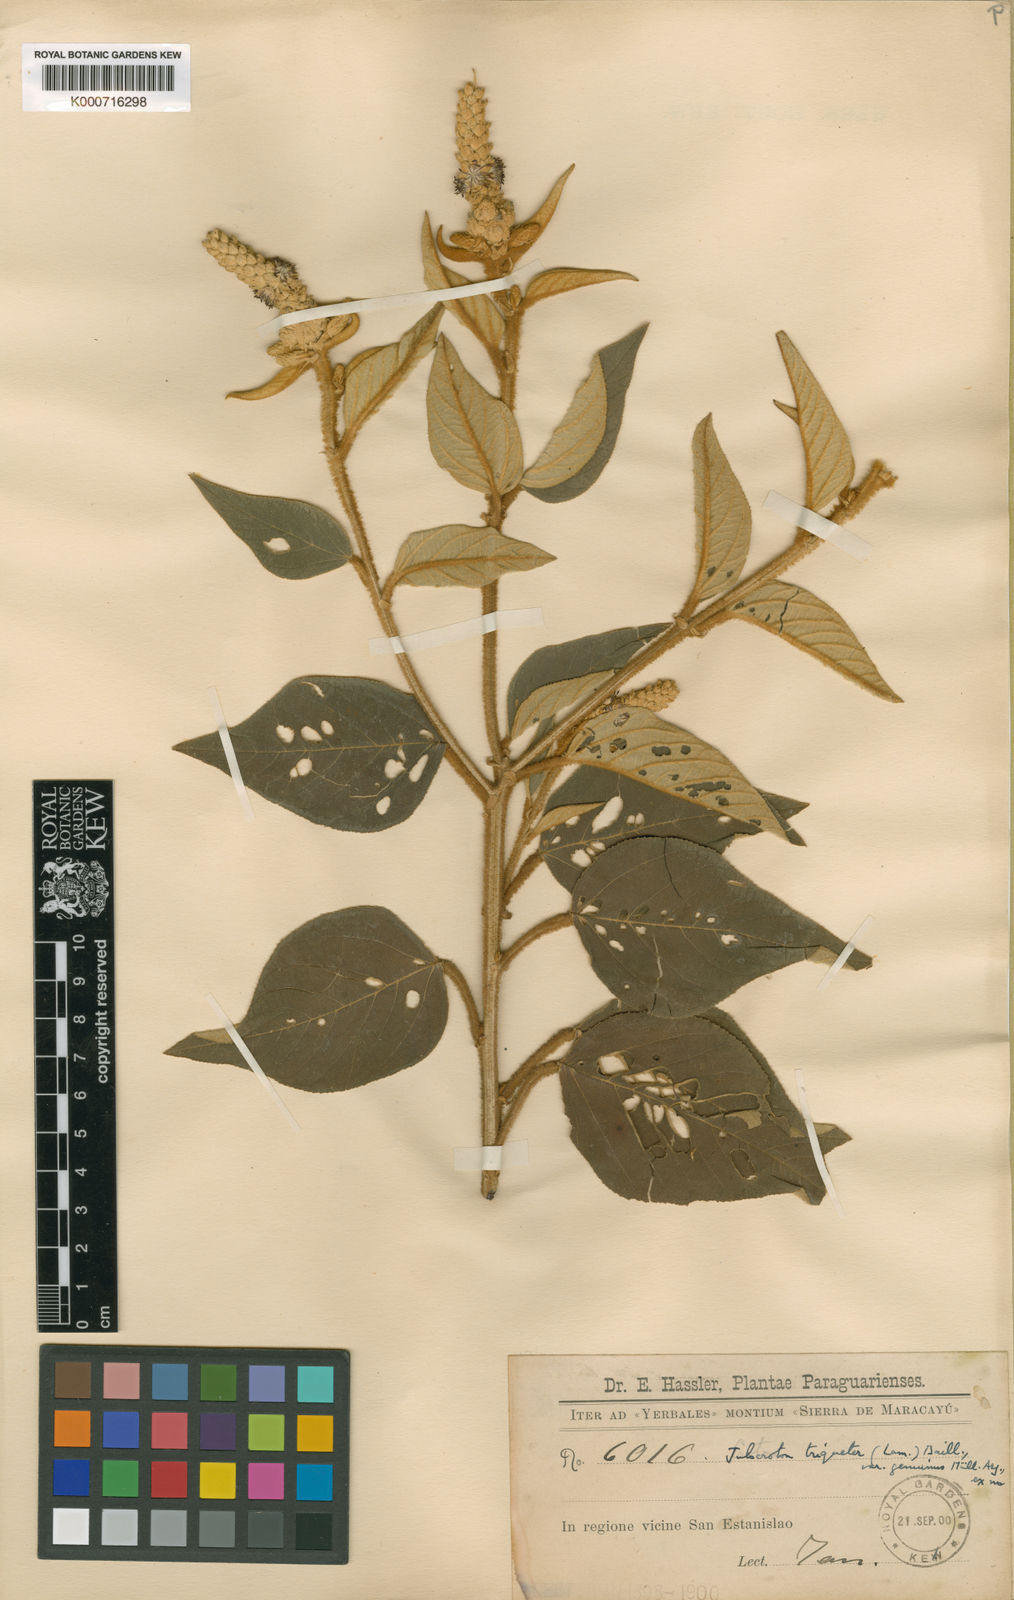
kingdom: Plantae
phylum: Tracheophyta
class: Magnoliopsida
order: Malpighiales
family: Euphorbiaceae
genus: Croton
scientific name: Croton triqueter
